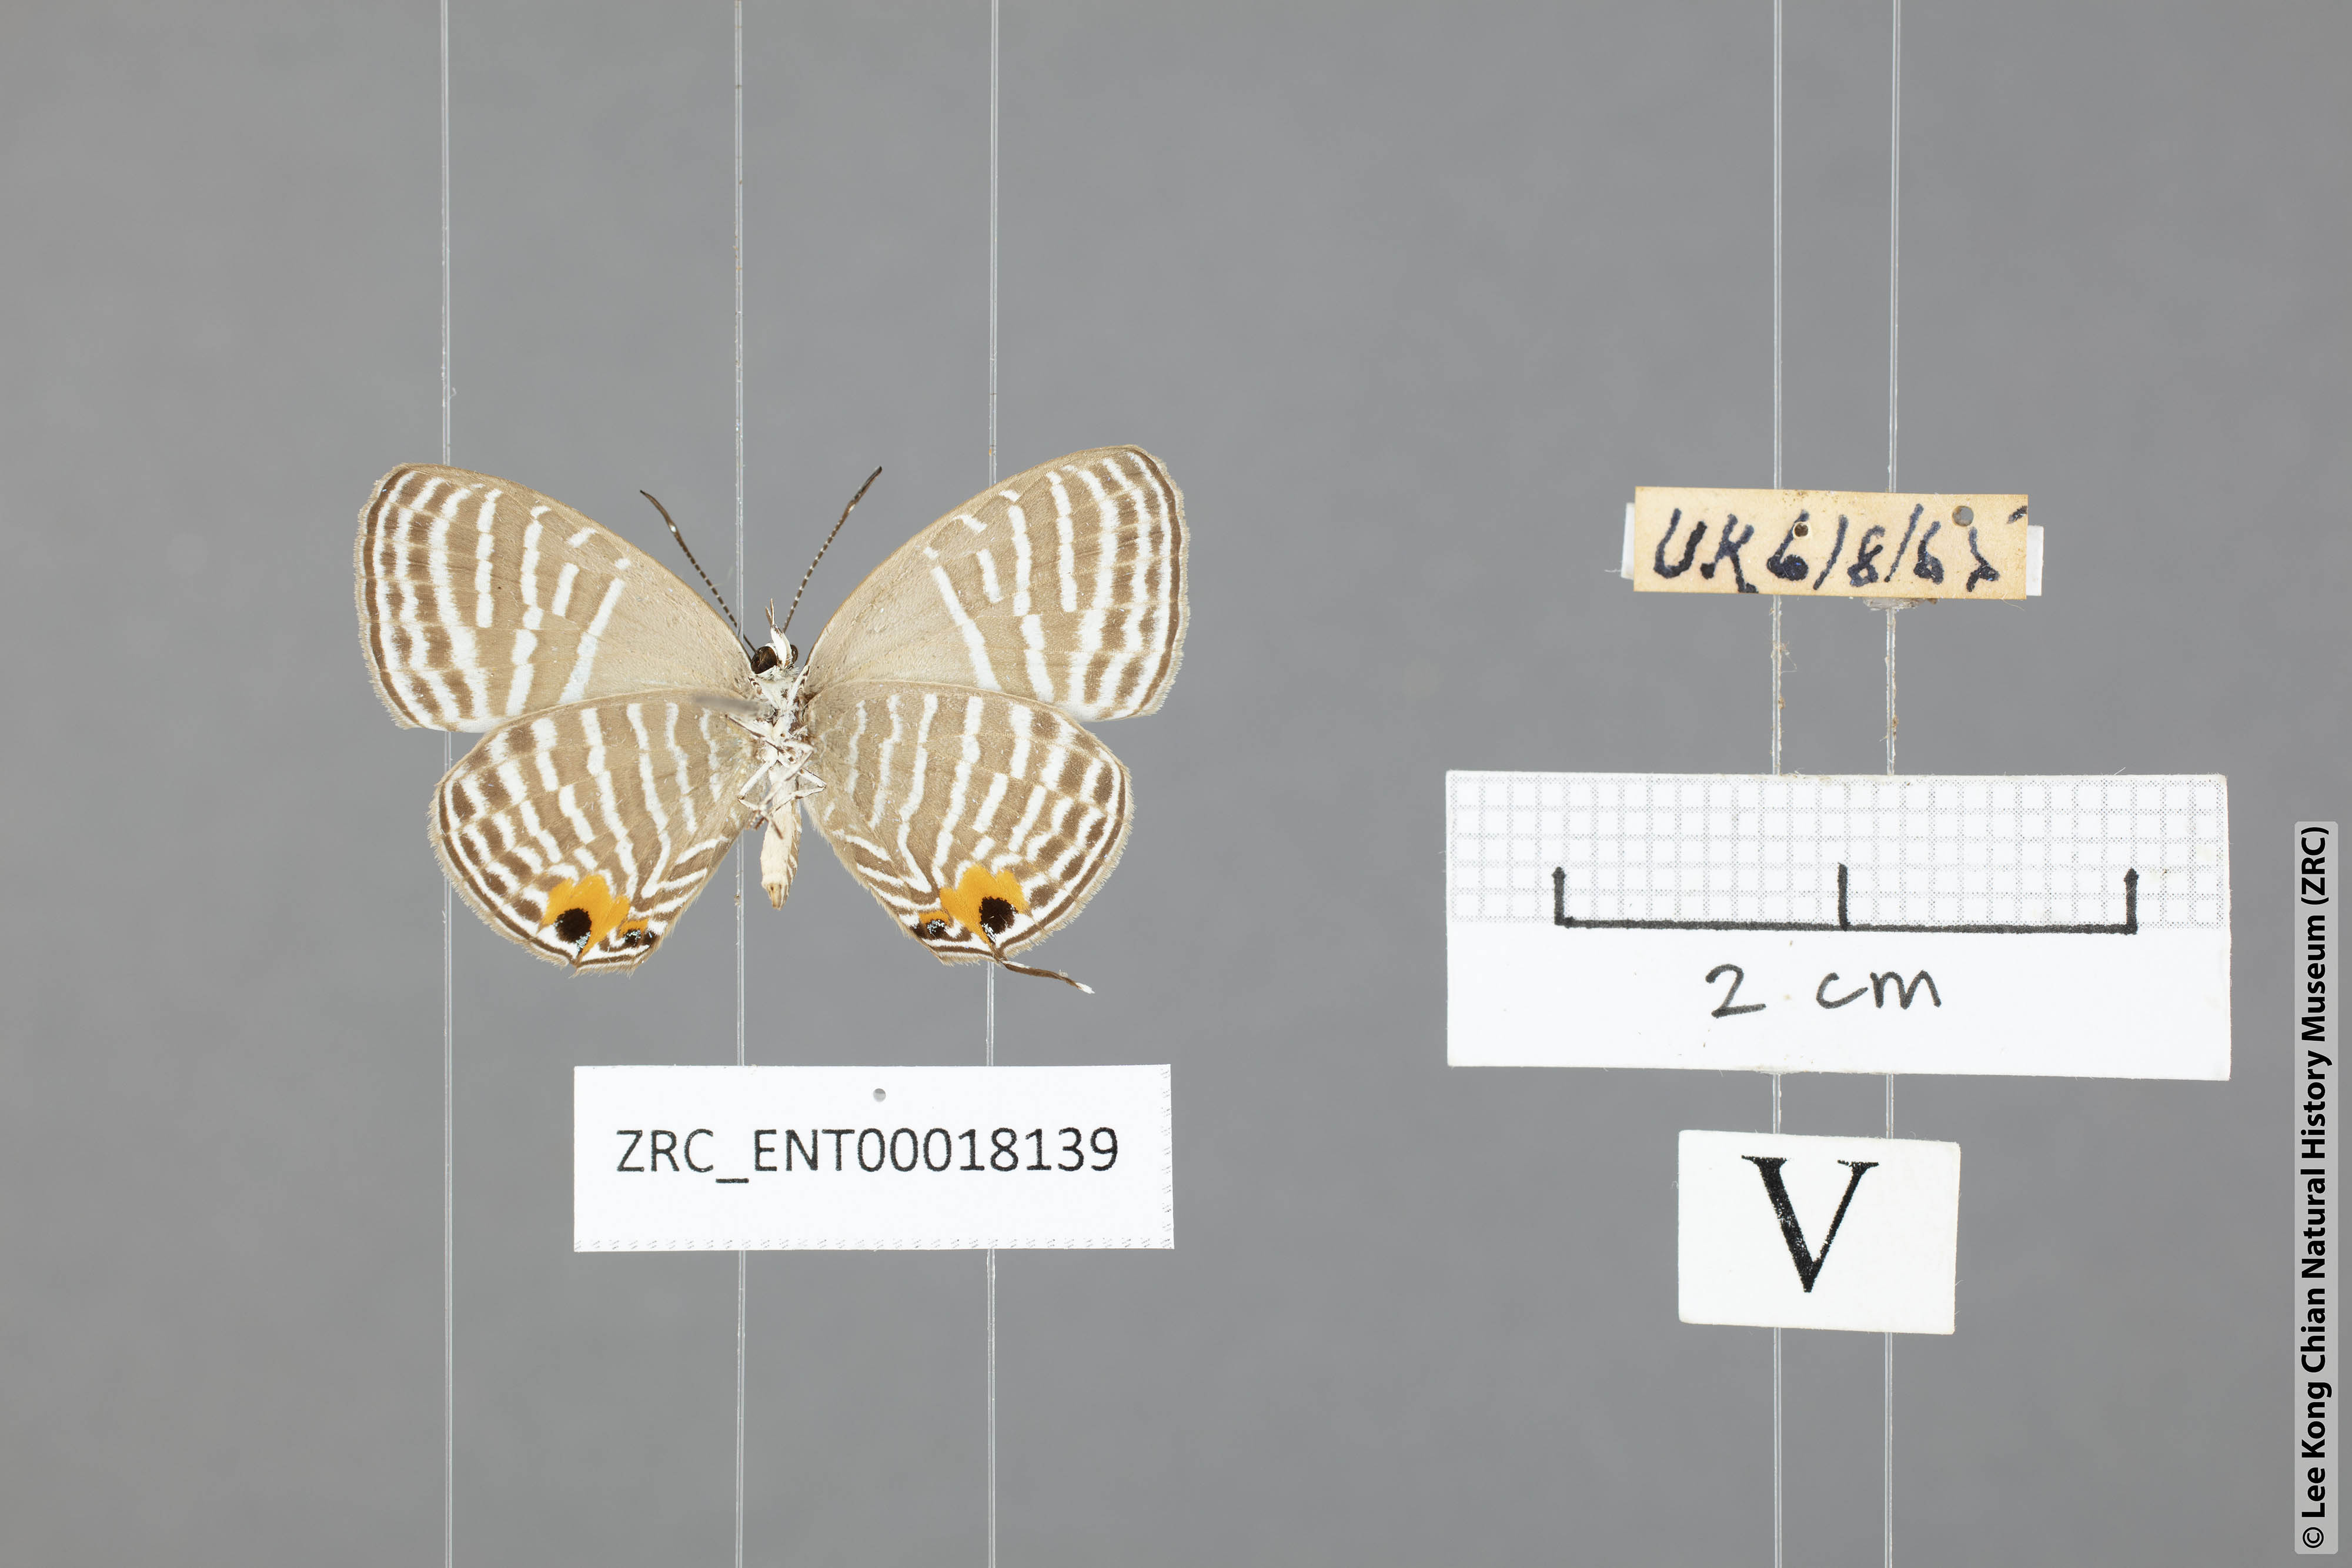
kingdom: Animalia
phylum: Arthropoda
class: Insecta
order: Lepidoptera
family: Lycaenidae
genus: Jamides
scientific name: Jamides malaccanus
